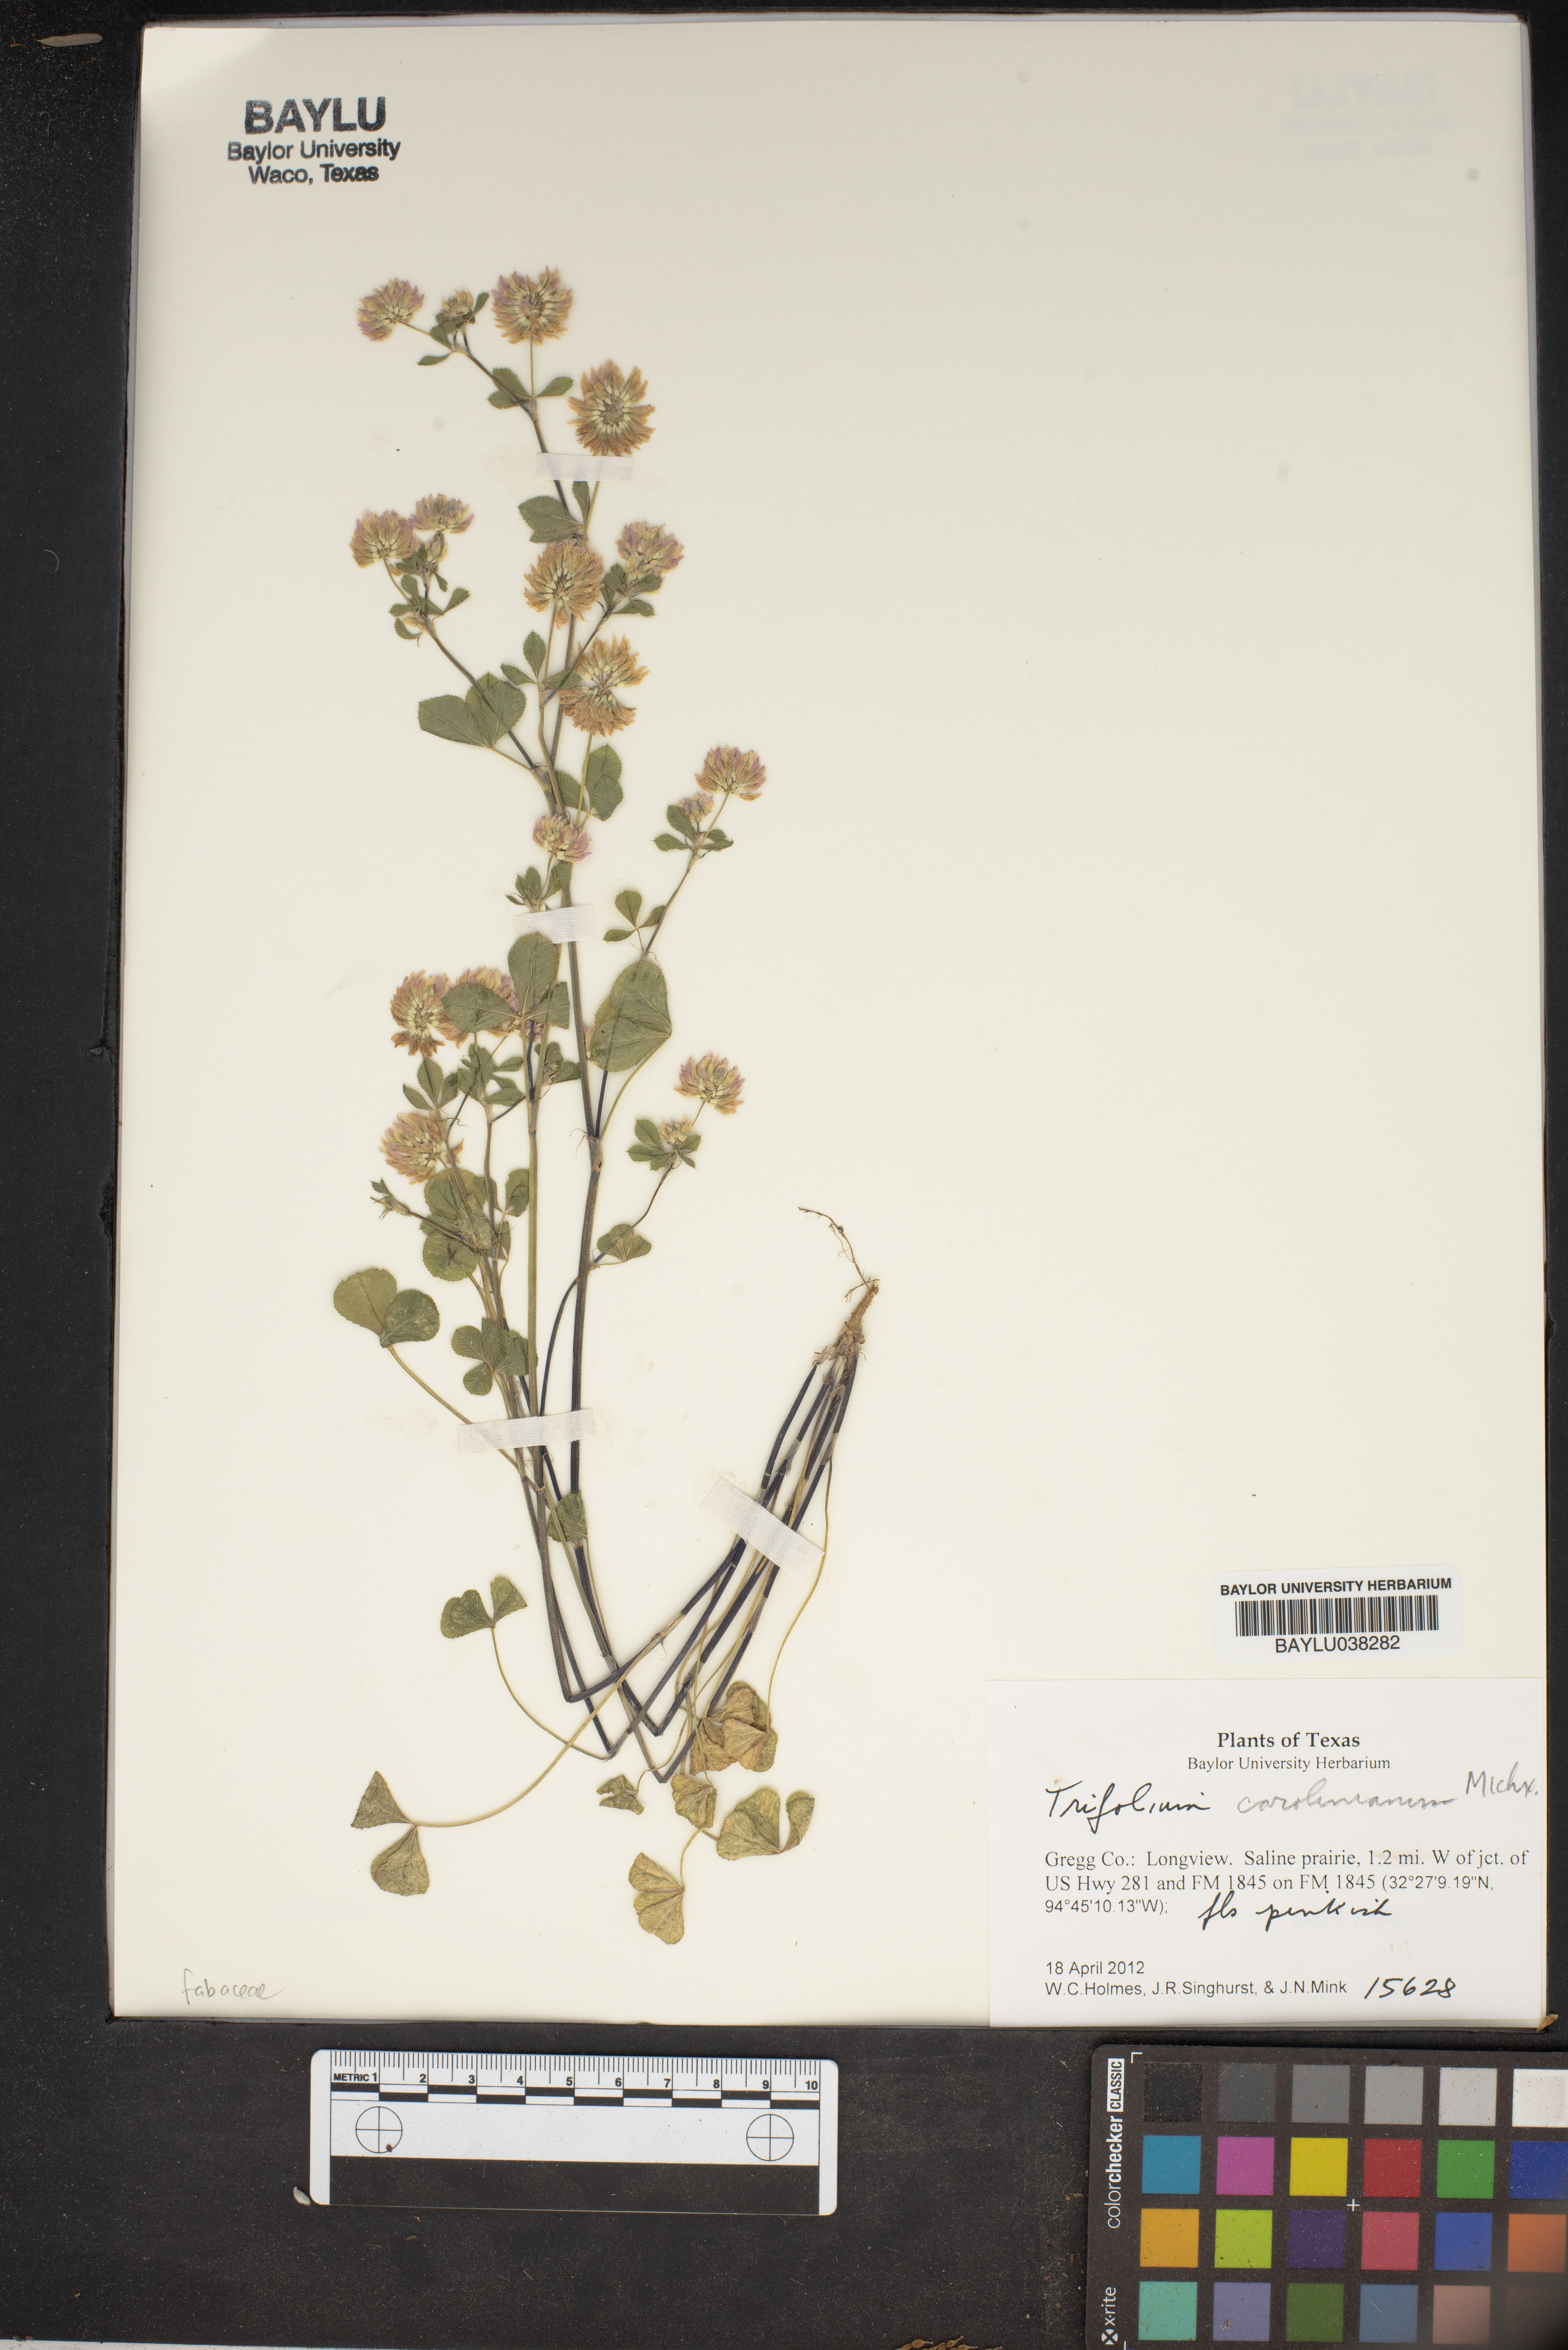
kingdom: Plantae
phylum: Tracheophyta
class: Magnoliopsida
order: Fabales
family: Fabaceae
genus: Trifolium
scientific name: Trifolium carolinianum
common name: Wild white clover
